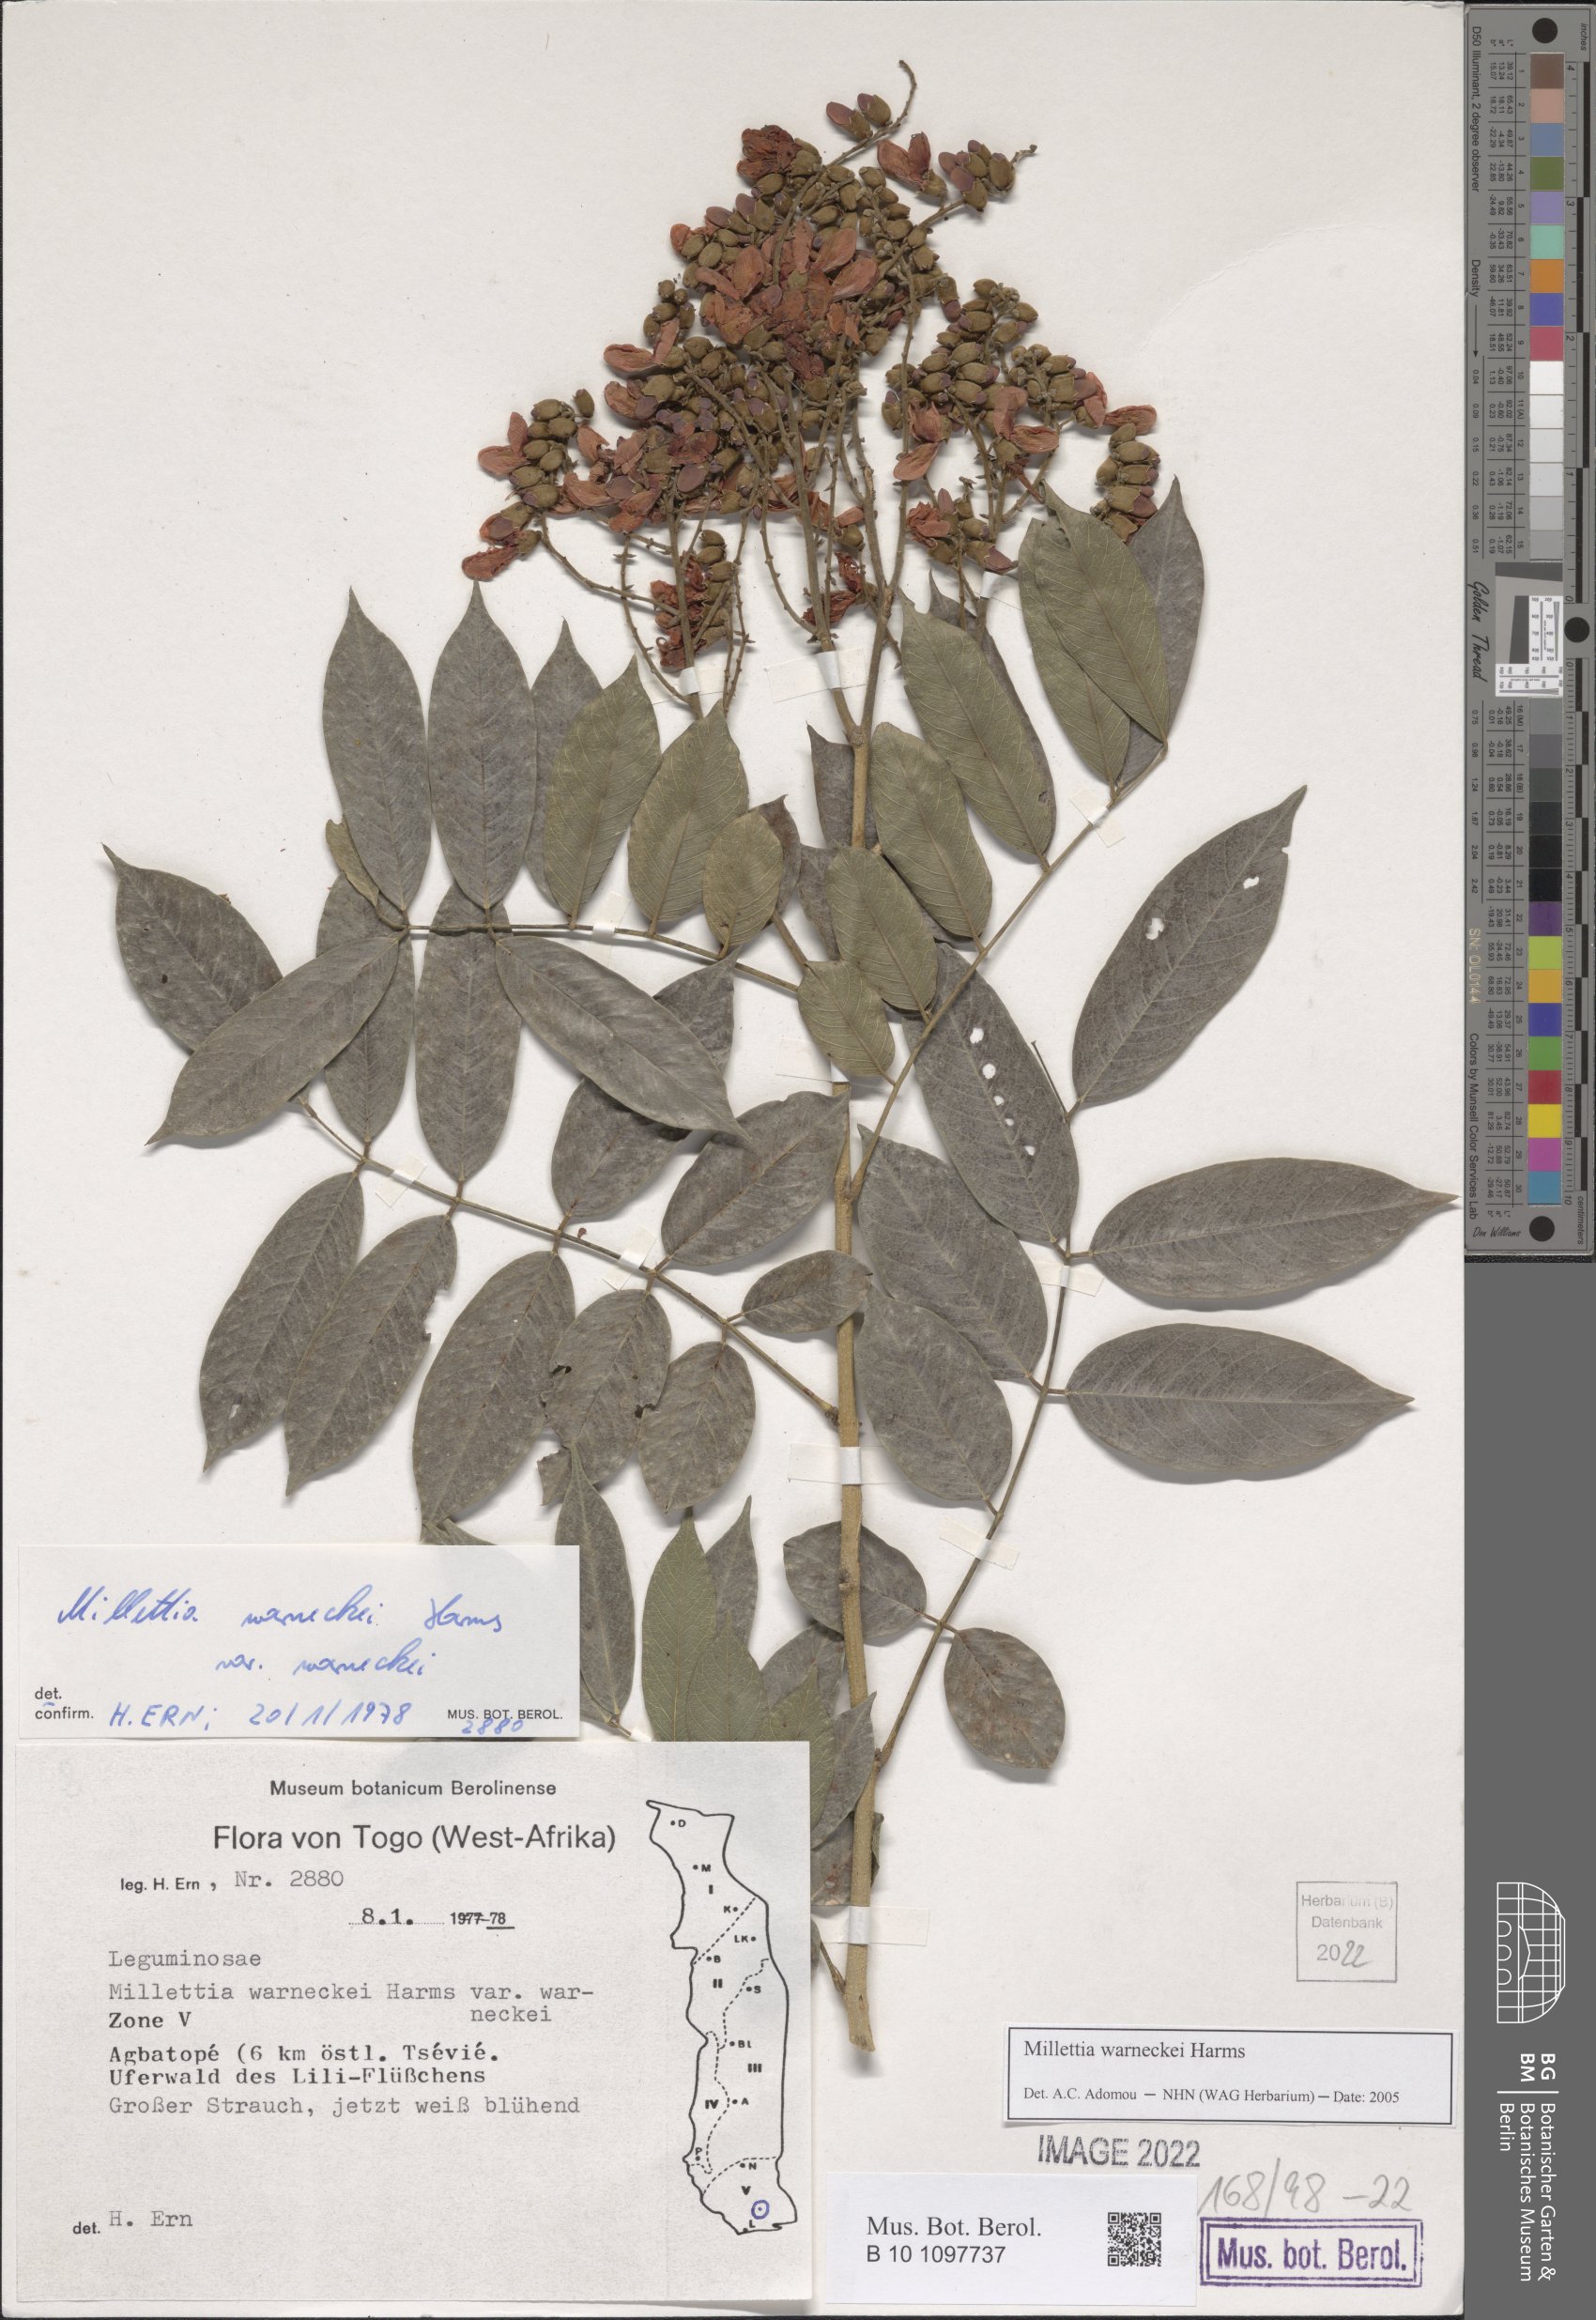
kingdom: Plantae
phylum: Tracheophyta
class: Magnoliopsida
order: Fabales
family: Fabaceae
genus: Millettia
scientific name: Millettia warneckei
